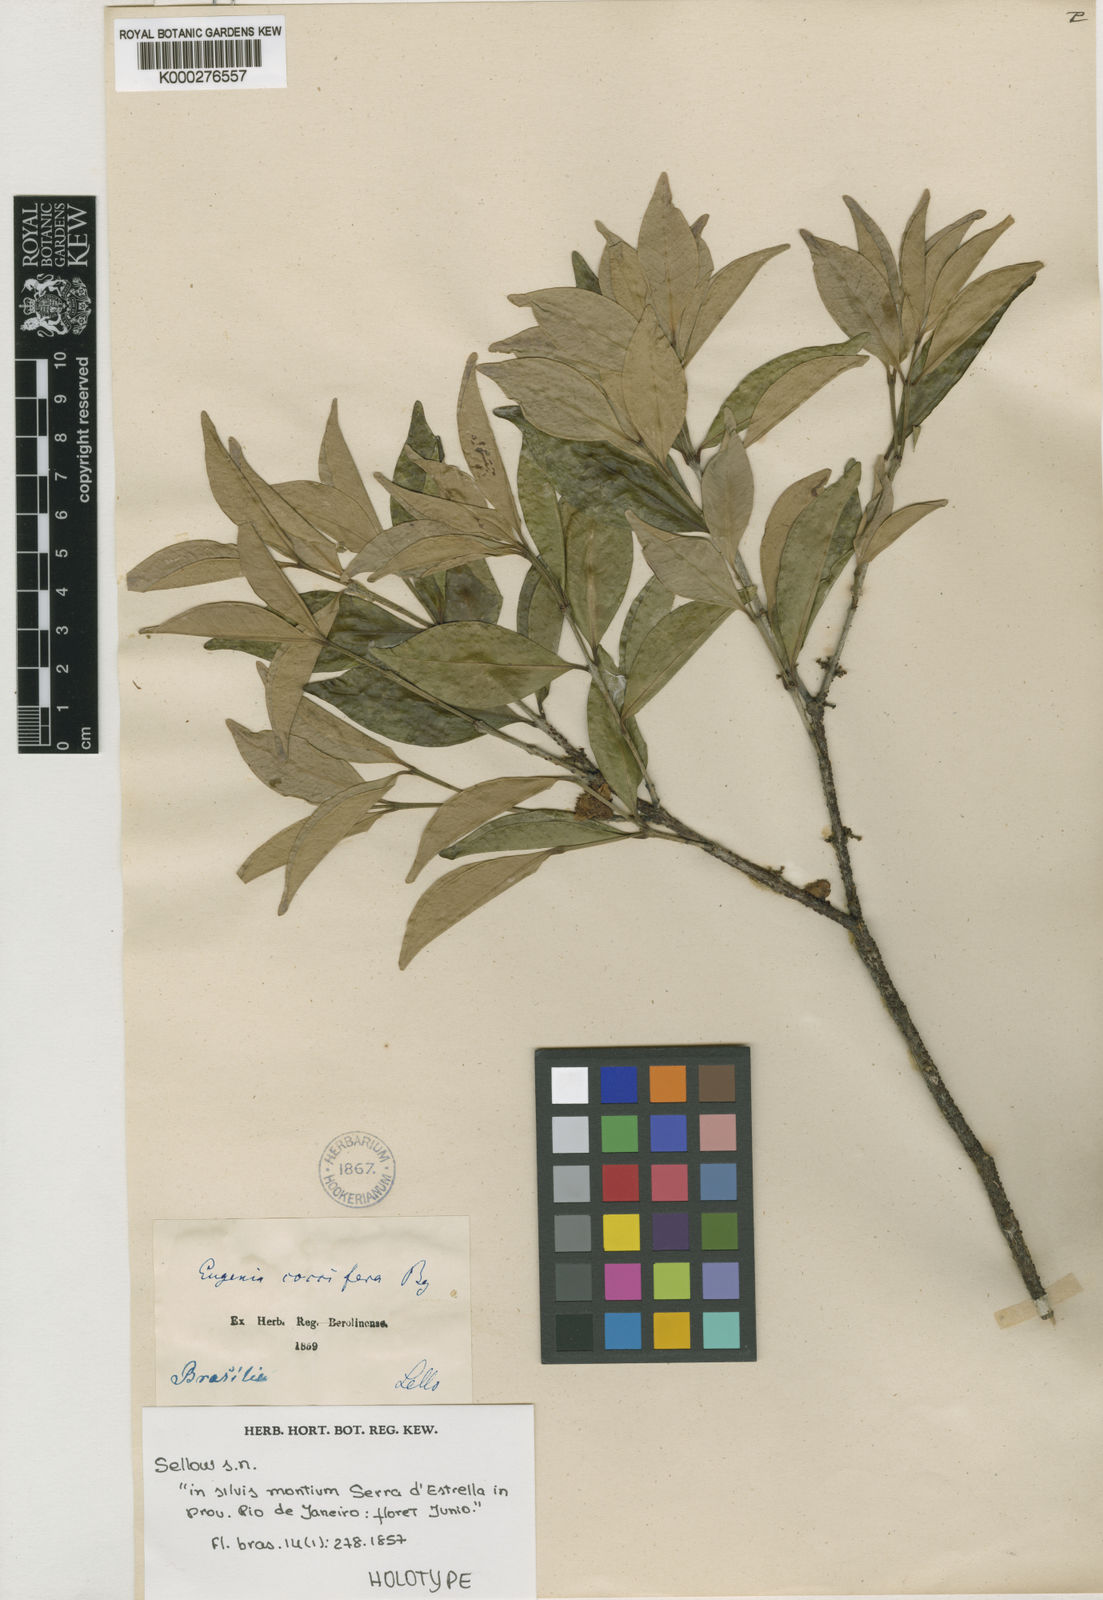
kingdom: Plantae
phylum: Tracheophyta
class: Magnoliopsida
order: Myrtales
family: Myrtaceae
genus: Eugenia
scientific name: Eugenia coccifera
